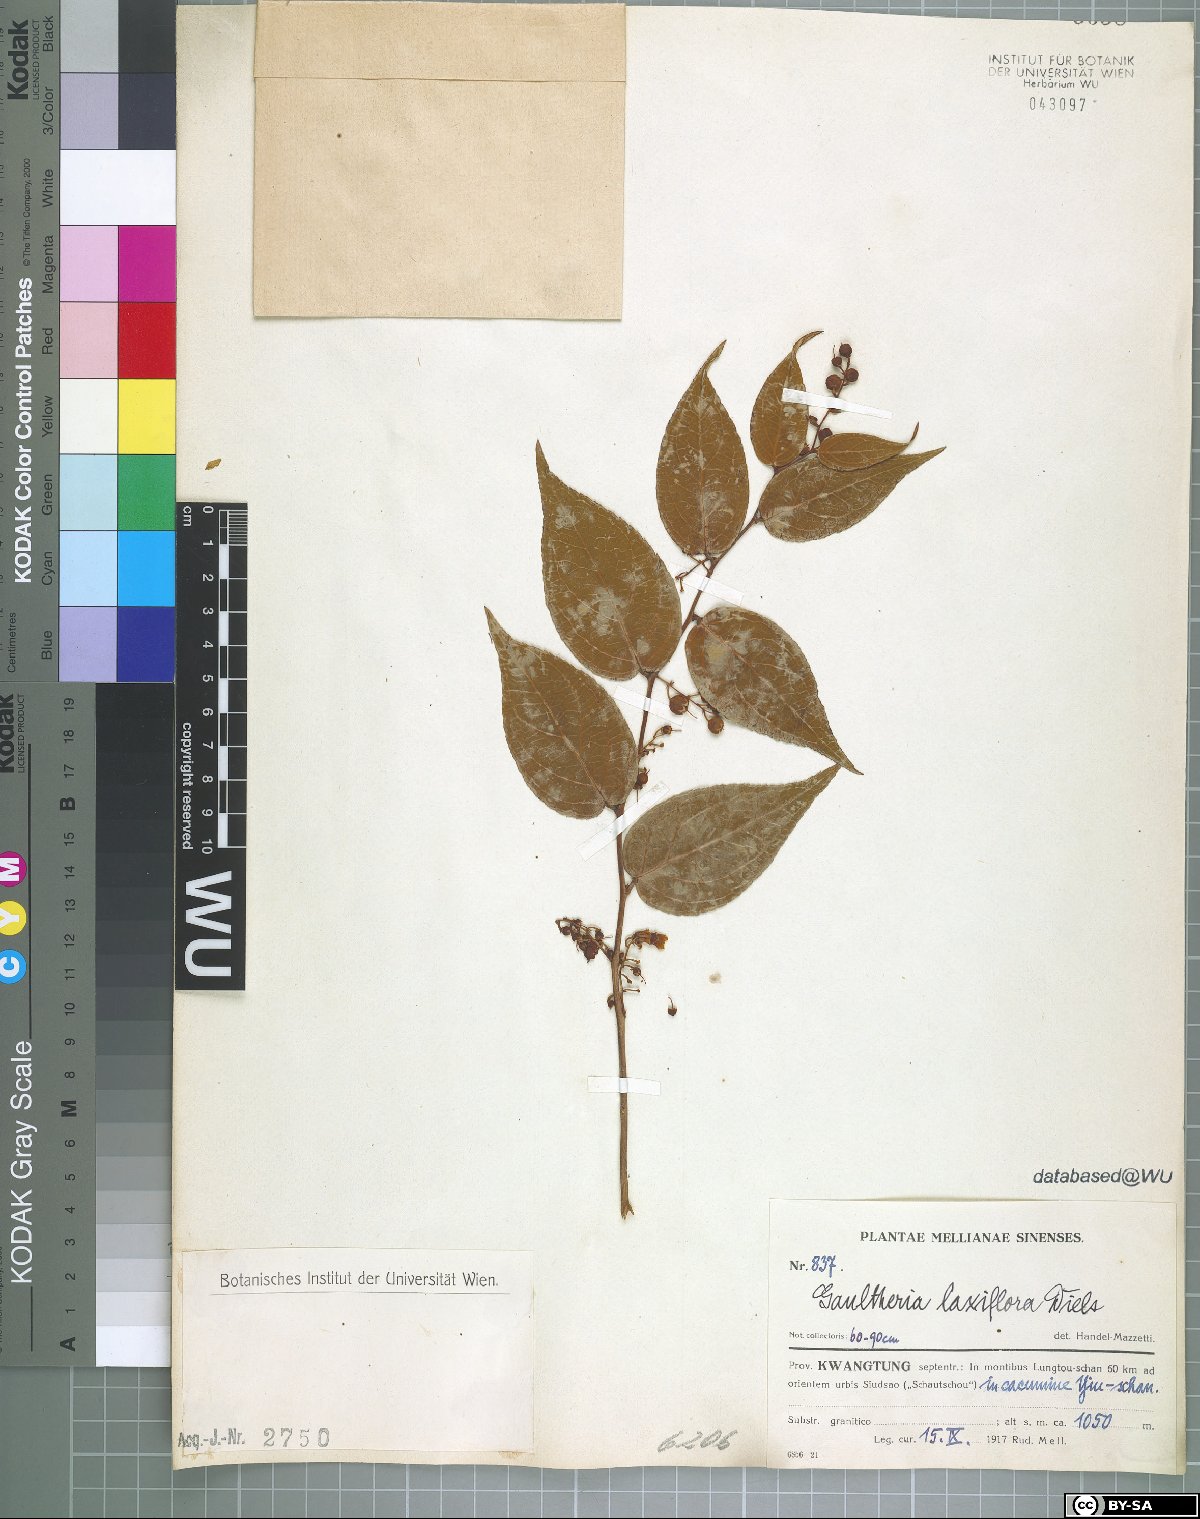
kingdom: Plantae
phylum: Tracheophyta
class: Magnoliopsida
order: Ericales
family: Ericaceae
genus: Gaultheria
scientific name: Gaultheria leucocarpa
